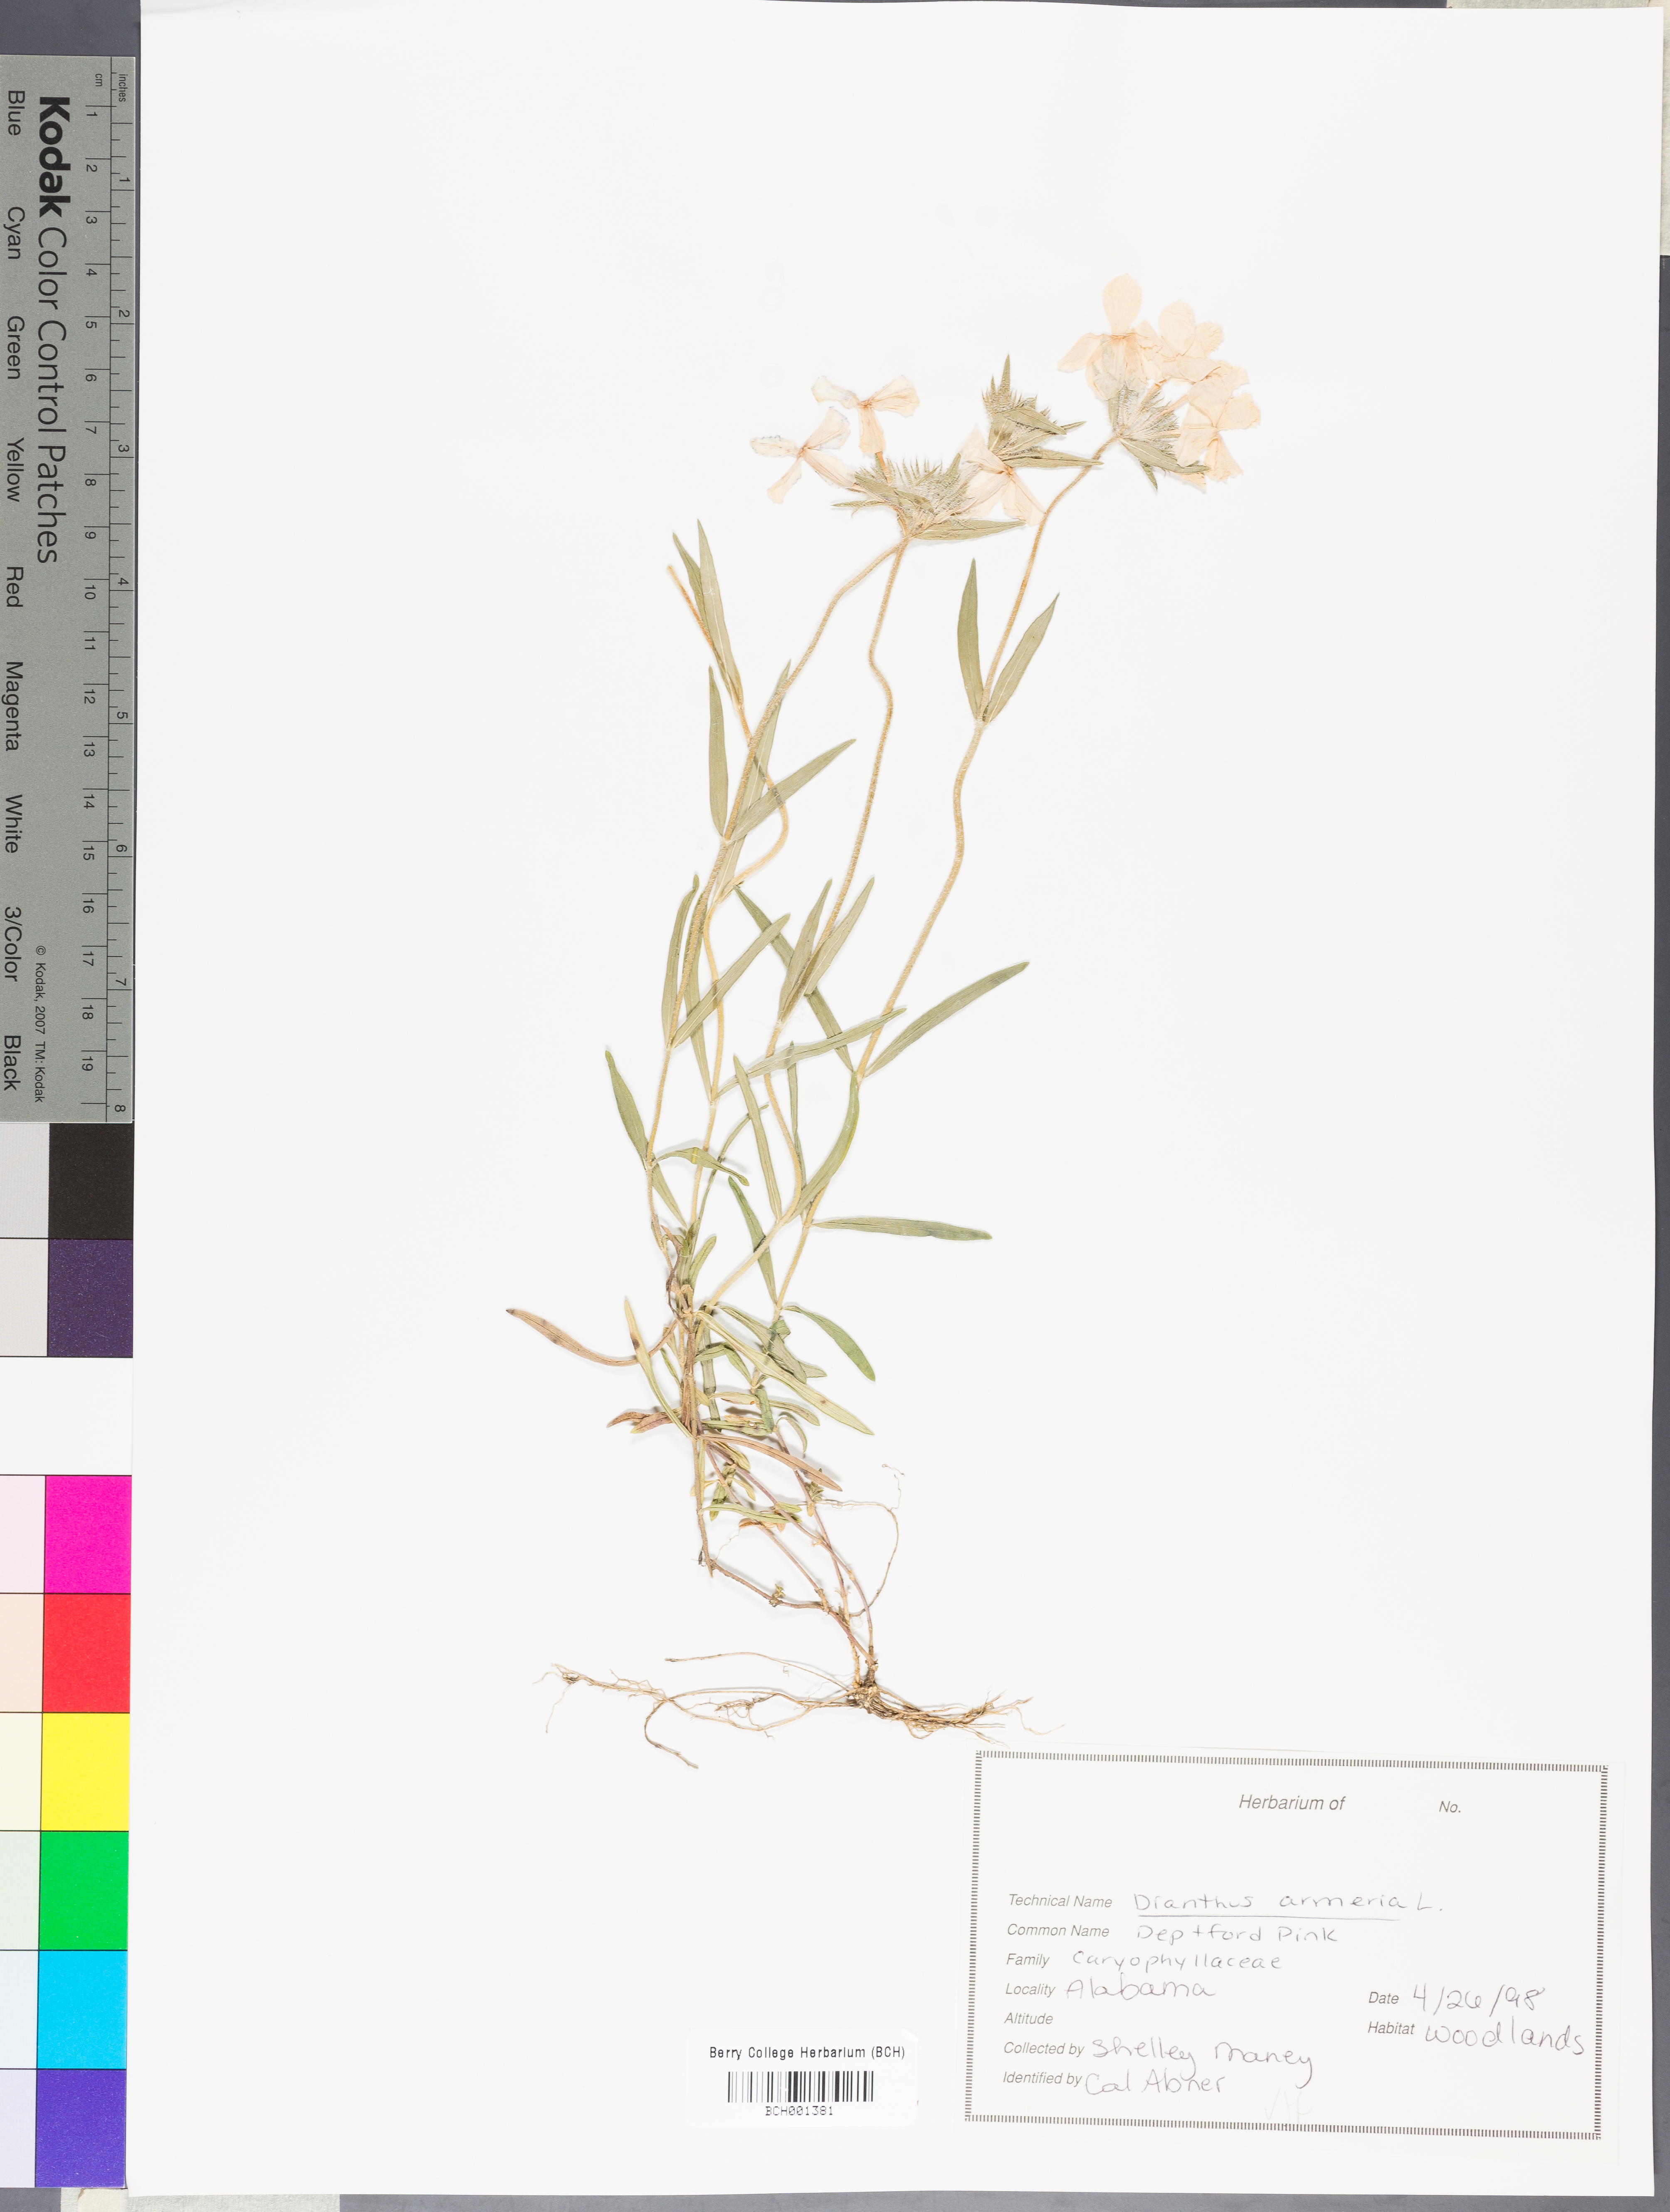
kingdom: Plantae
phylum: Tracheophyta
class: Magnoliopsida
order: Caryophyllales
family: Caryophyllaceae
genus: Dianthus
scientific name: Dianthus armeria
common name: Deptford pink
